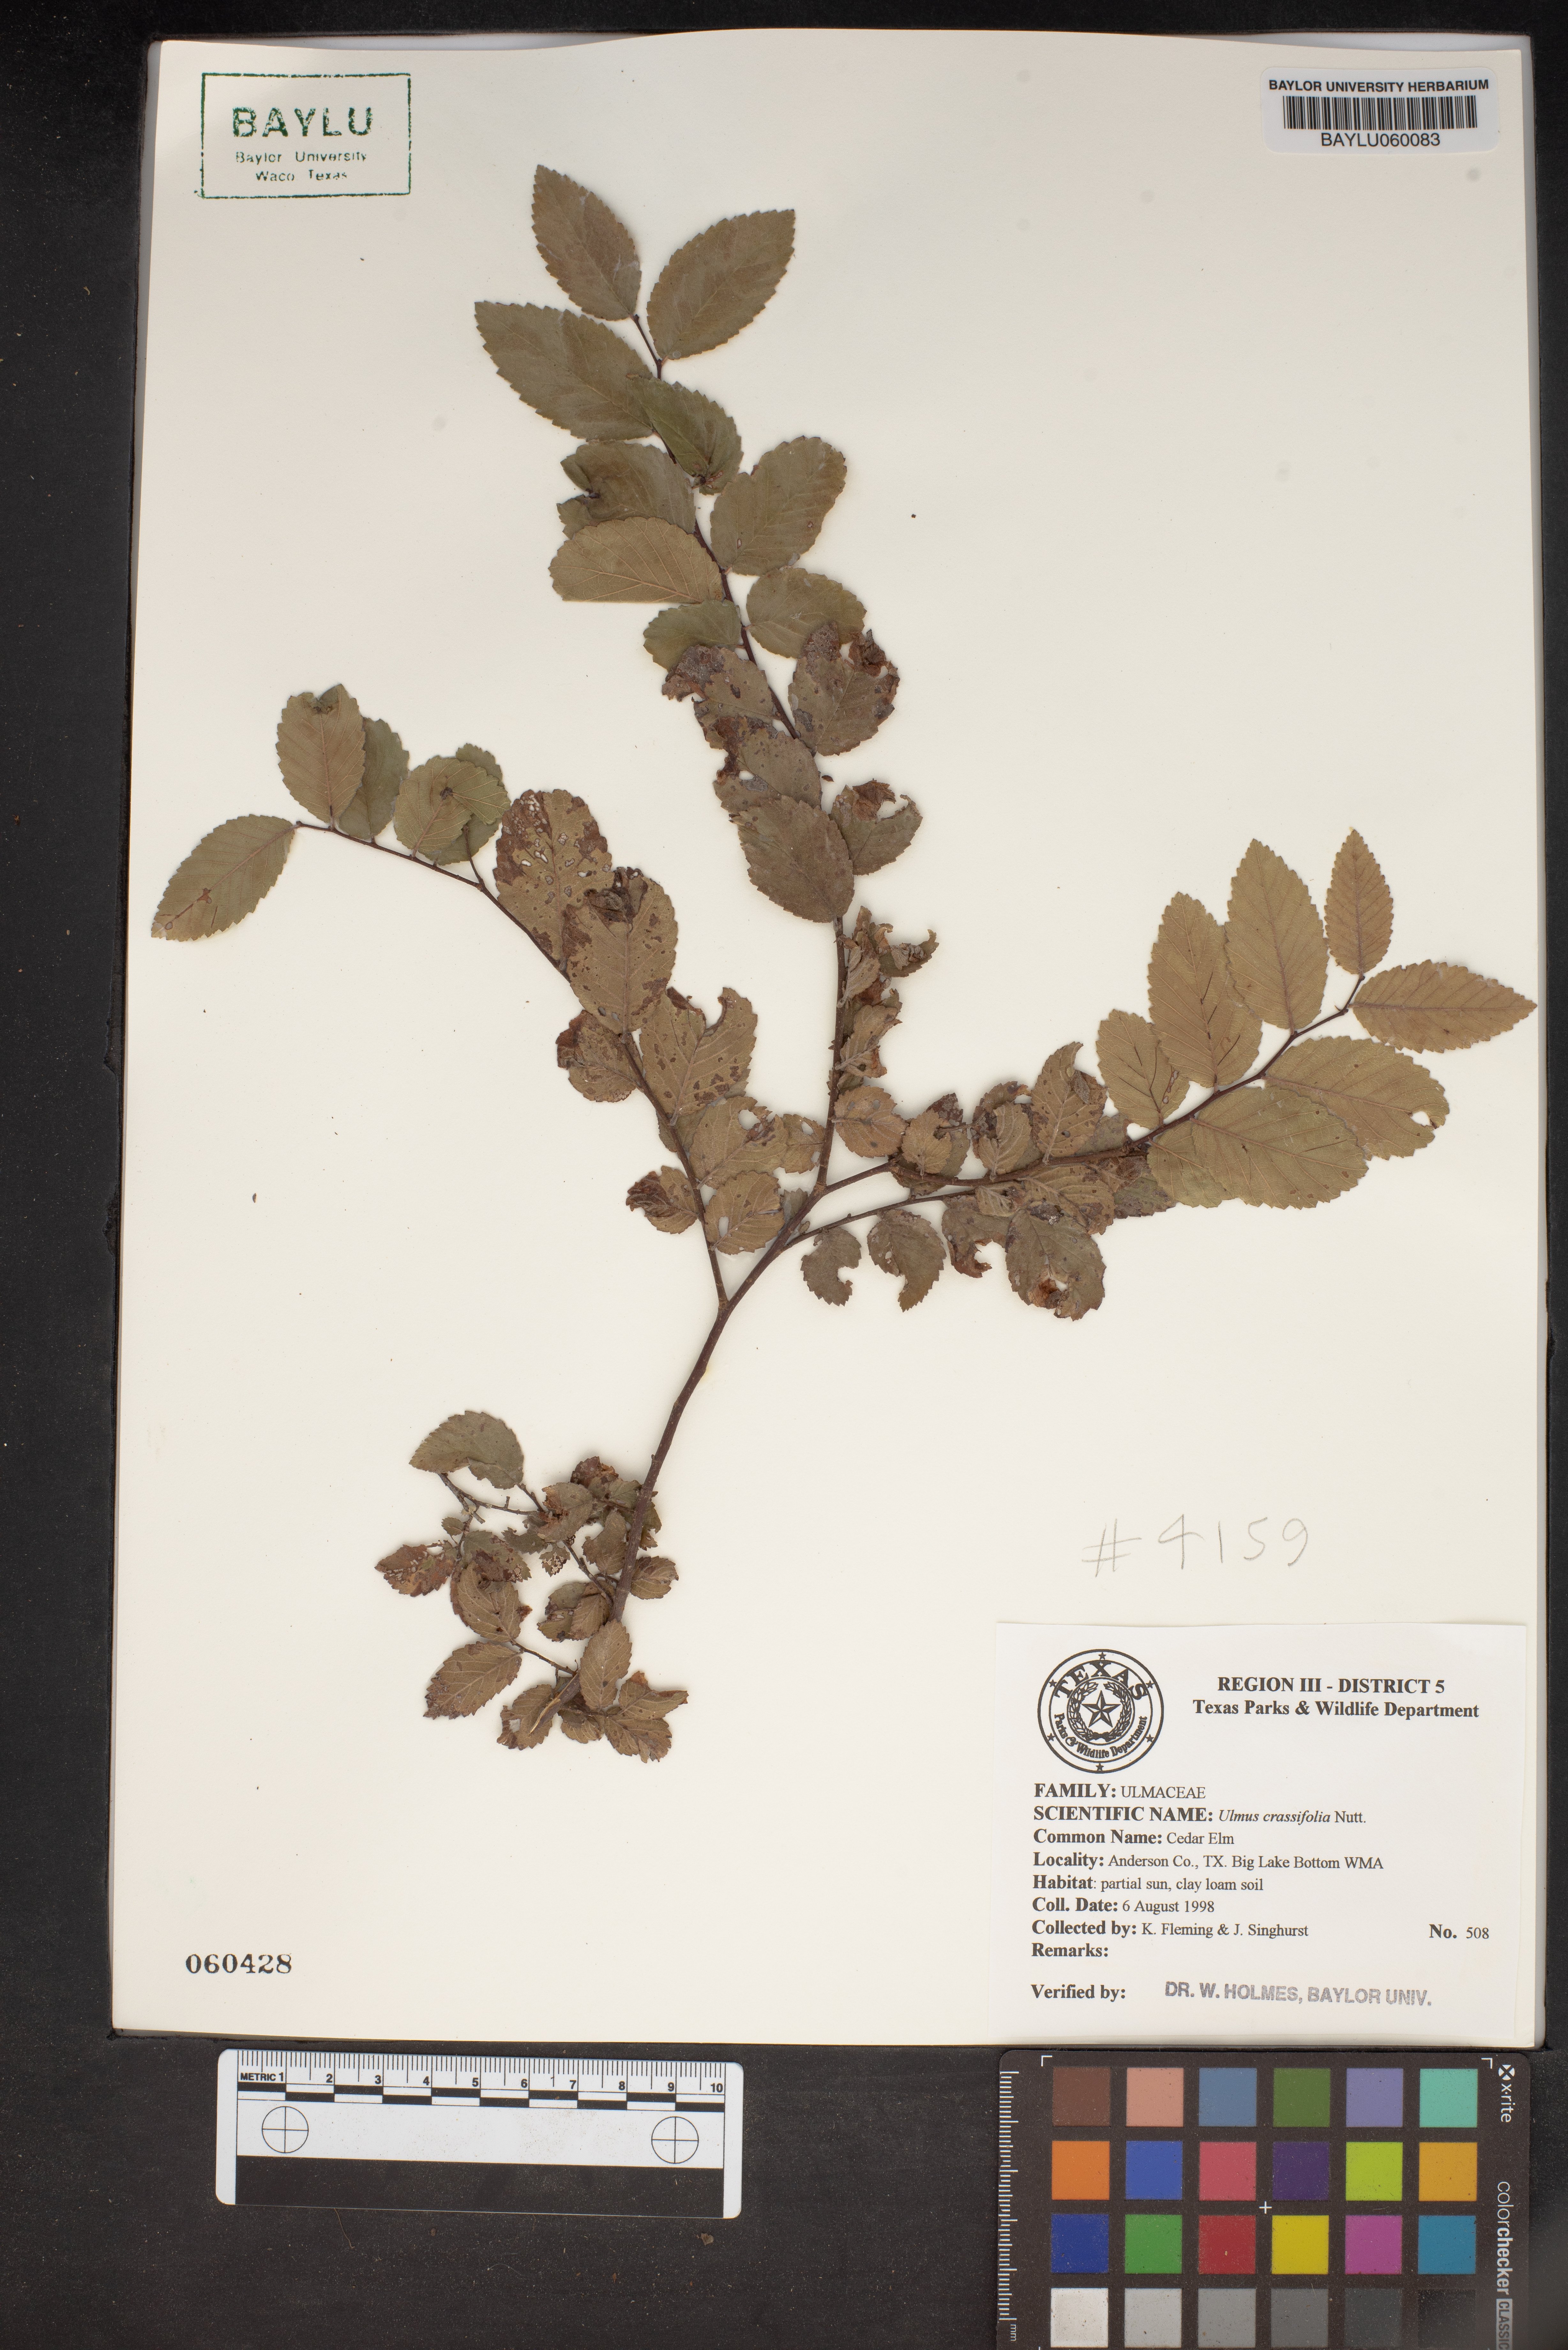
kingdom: Plantae
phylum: Tracheophyta
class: Magnoliopsida
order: Rosales
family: Ulmaceae
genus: Ulmus
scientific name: Ulmus crassifolia
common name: Basket elm
